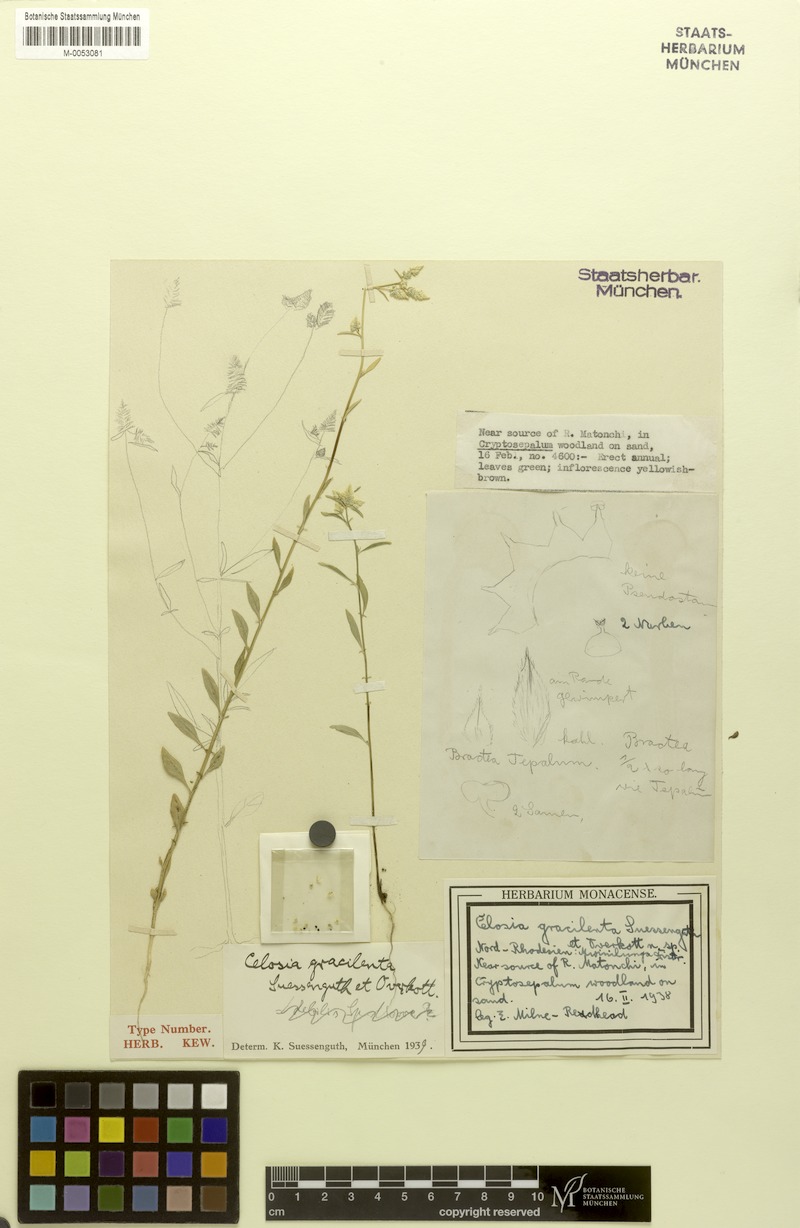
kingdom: Plantae
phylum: Tracheophyta
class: Magnoliopsida
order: Caryophyllales
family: Amaranthaceae
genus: Celosia
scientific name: Celosia vanderystii
